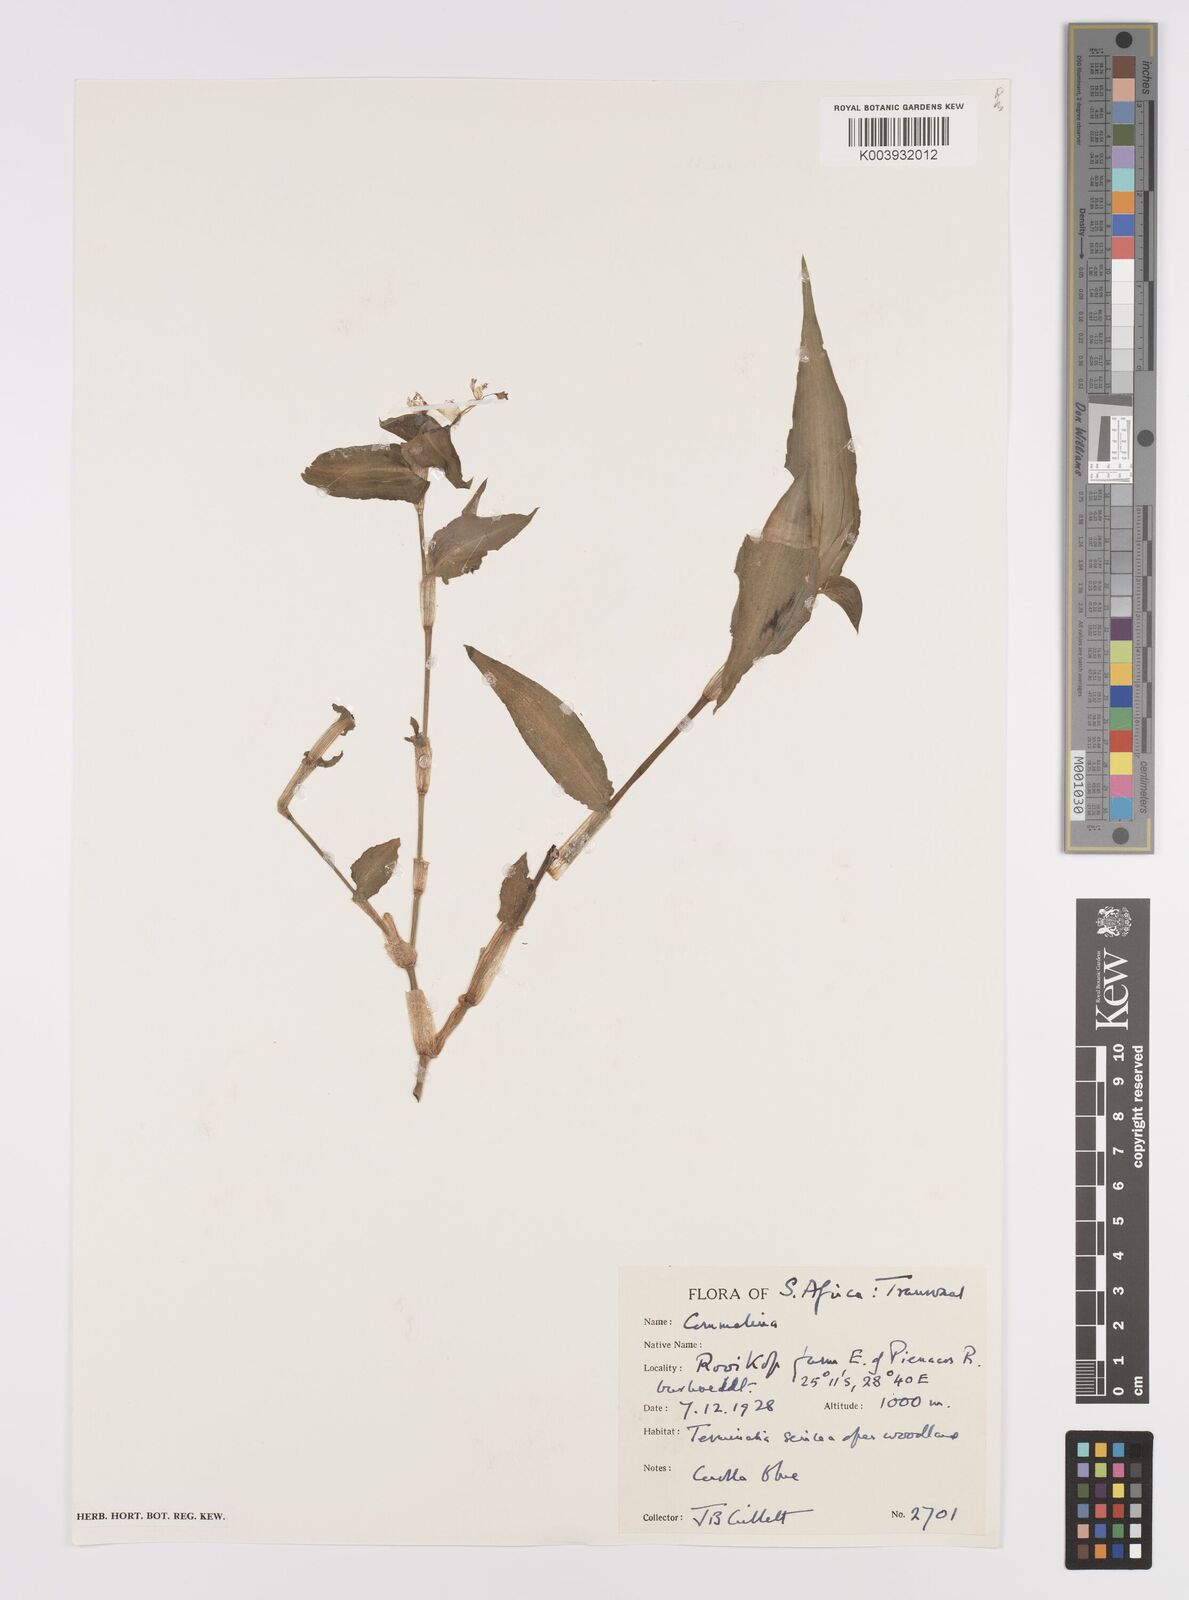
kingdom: Plantae
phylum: Tracheophyta
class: Liliopsida
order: Commelinales
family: Commelinaceae
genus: Commelina
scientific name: Commelina
